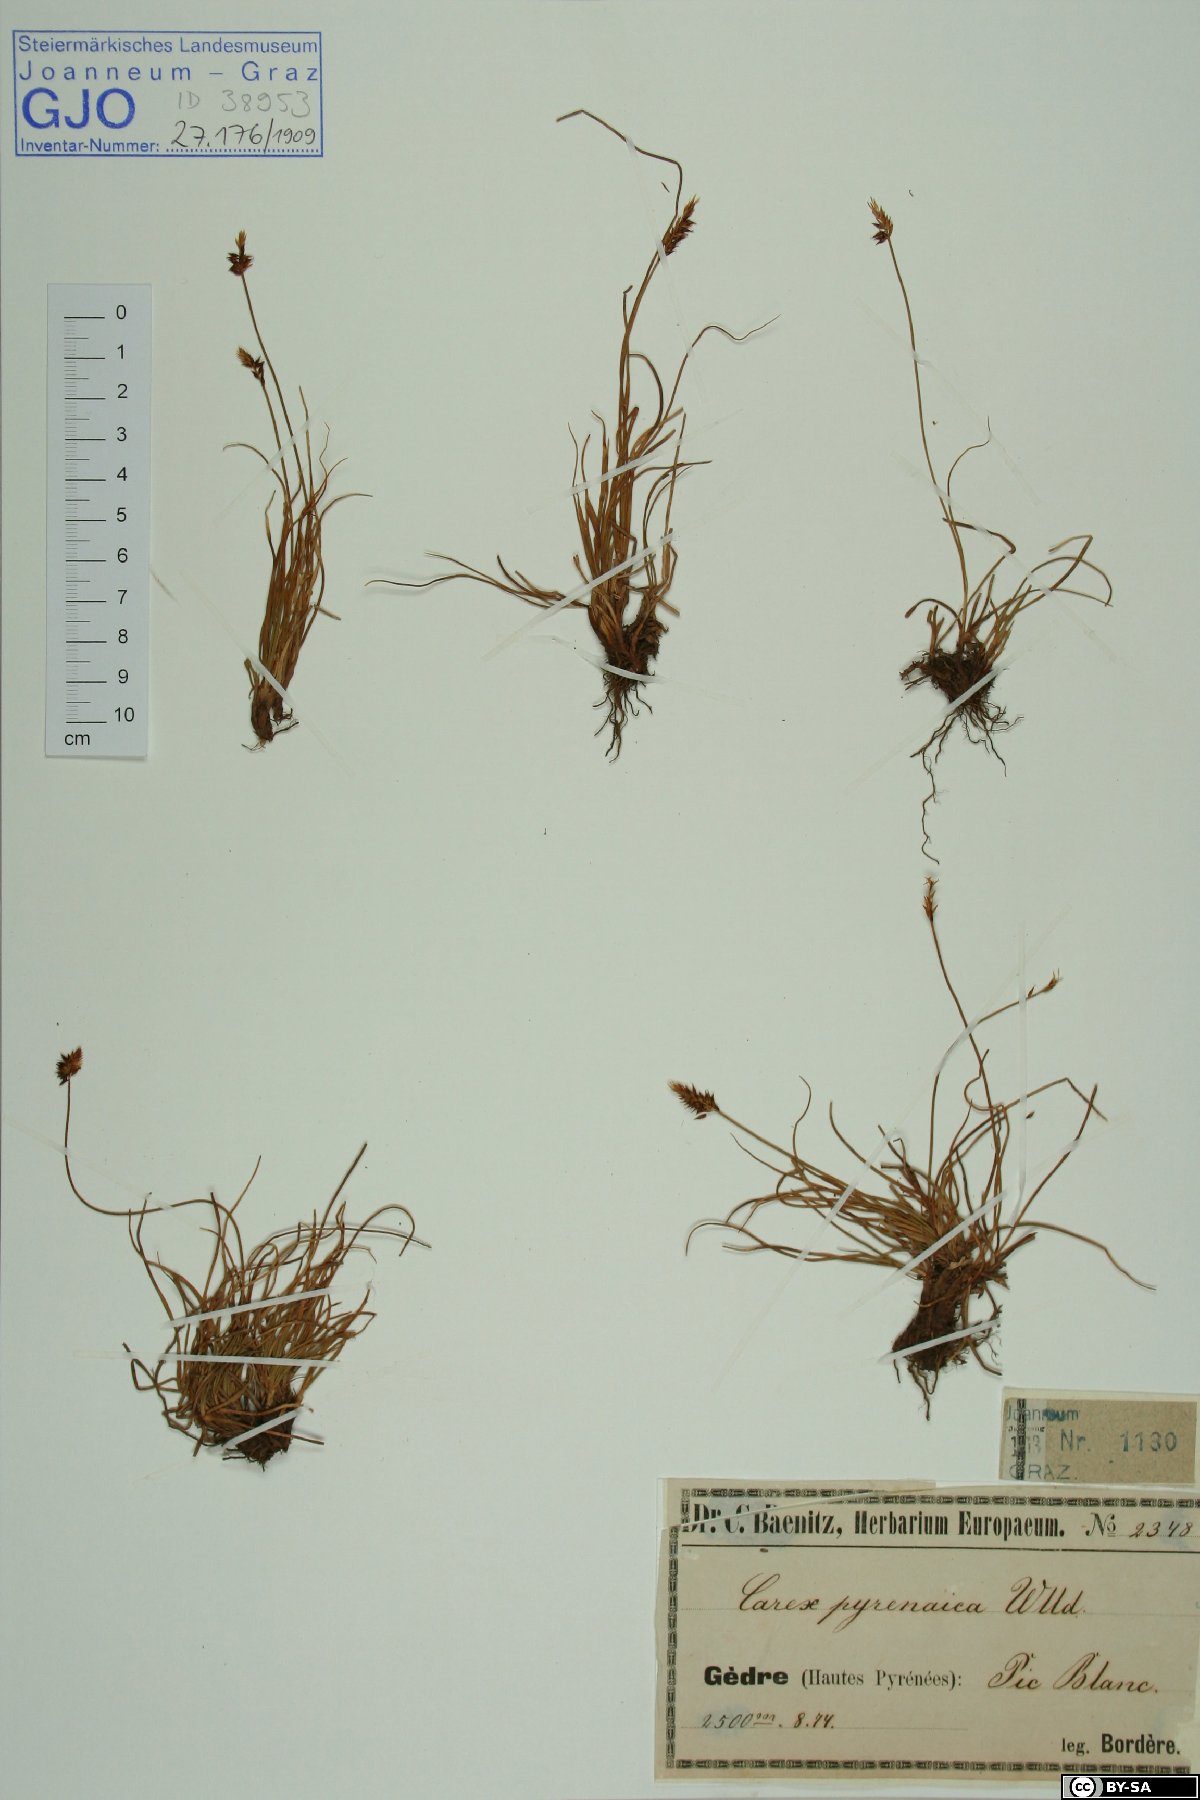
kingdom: Plantae
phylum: Tracheophyta
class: Liliopsida
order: Poales
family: Cyperaceae
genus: Carex
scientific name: Carex pyrenaica
